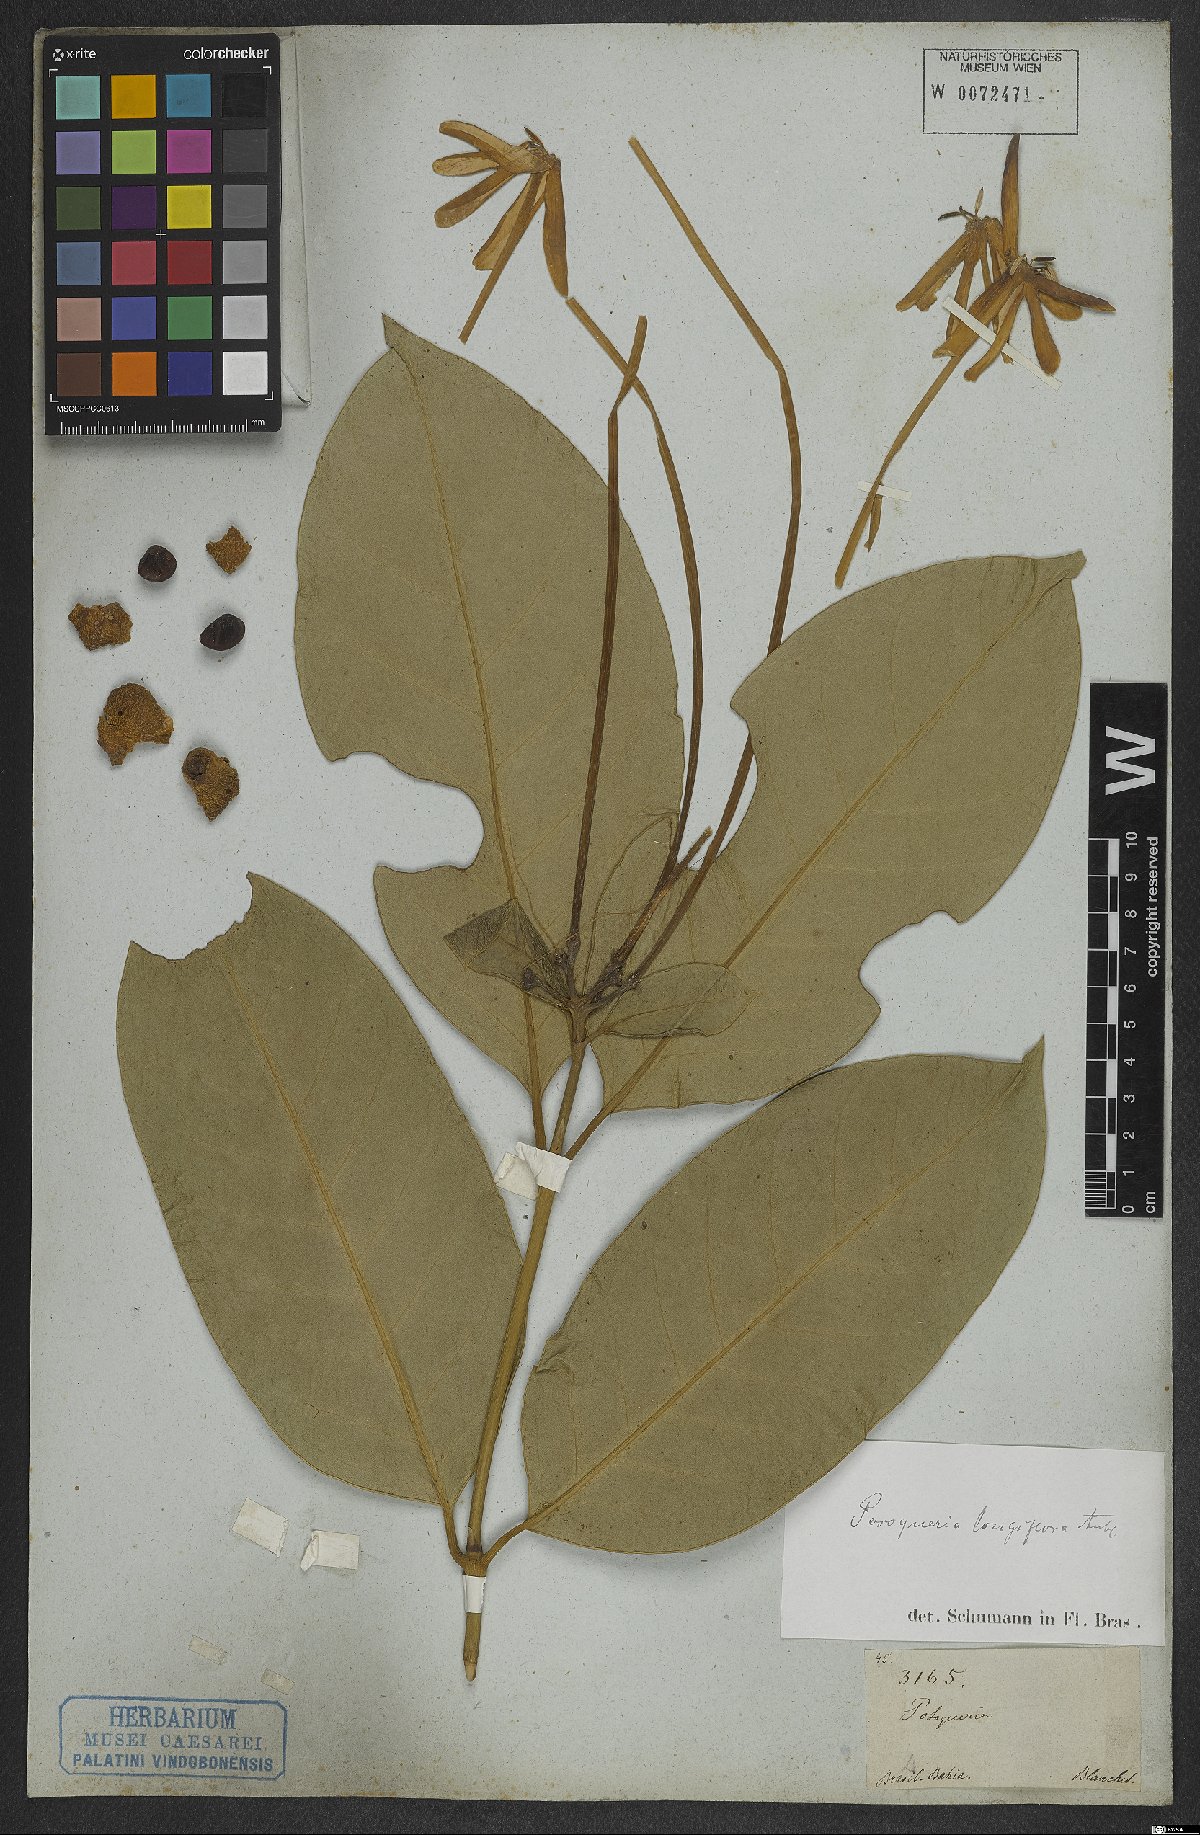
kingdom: Plantae
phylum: Tracheophyta
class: Magnoliopsida
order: Gentianales
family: Rubiaceae
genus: Posoqueria
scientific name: Posoqueria longiflora
